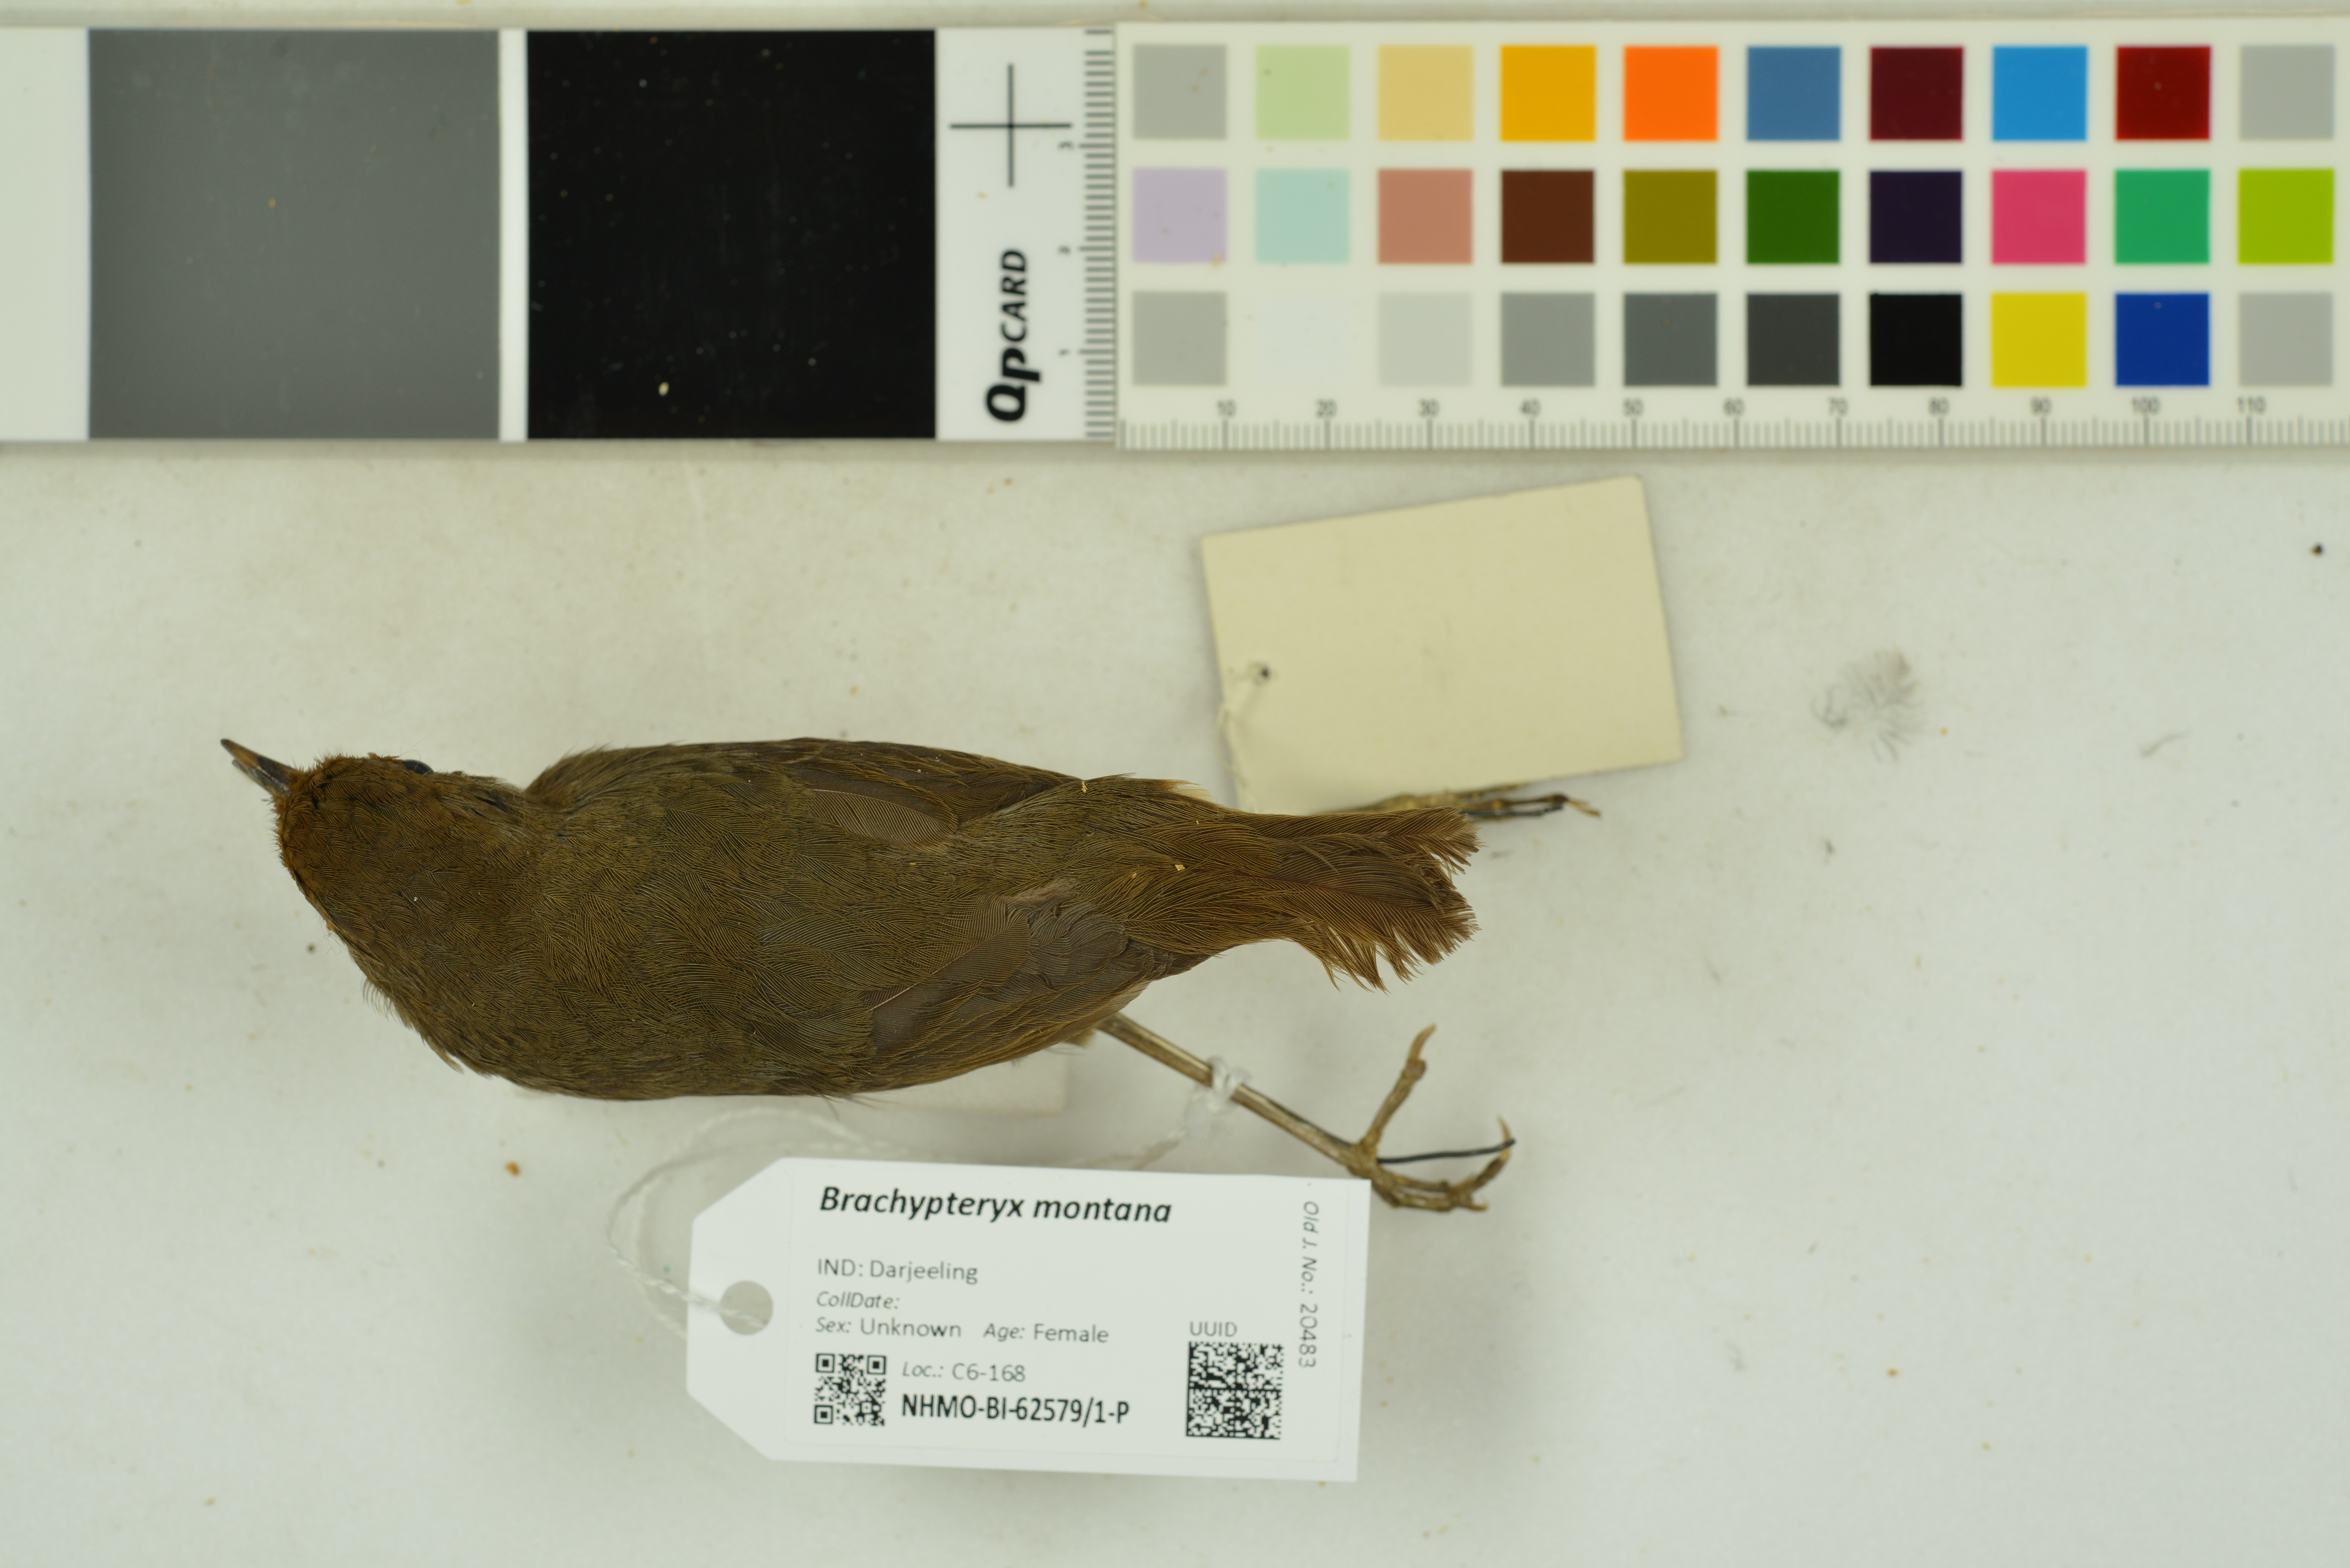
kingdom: Animalia
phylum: Chordata
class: Aves
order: Passeriformes
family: Muscicapidae
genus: Brachypteryx
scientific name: Brachypteryx montana
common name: White-browed shortwing
